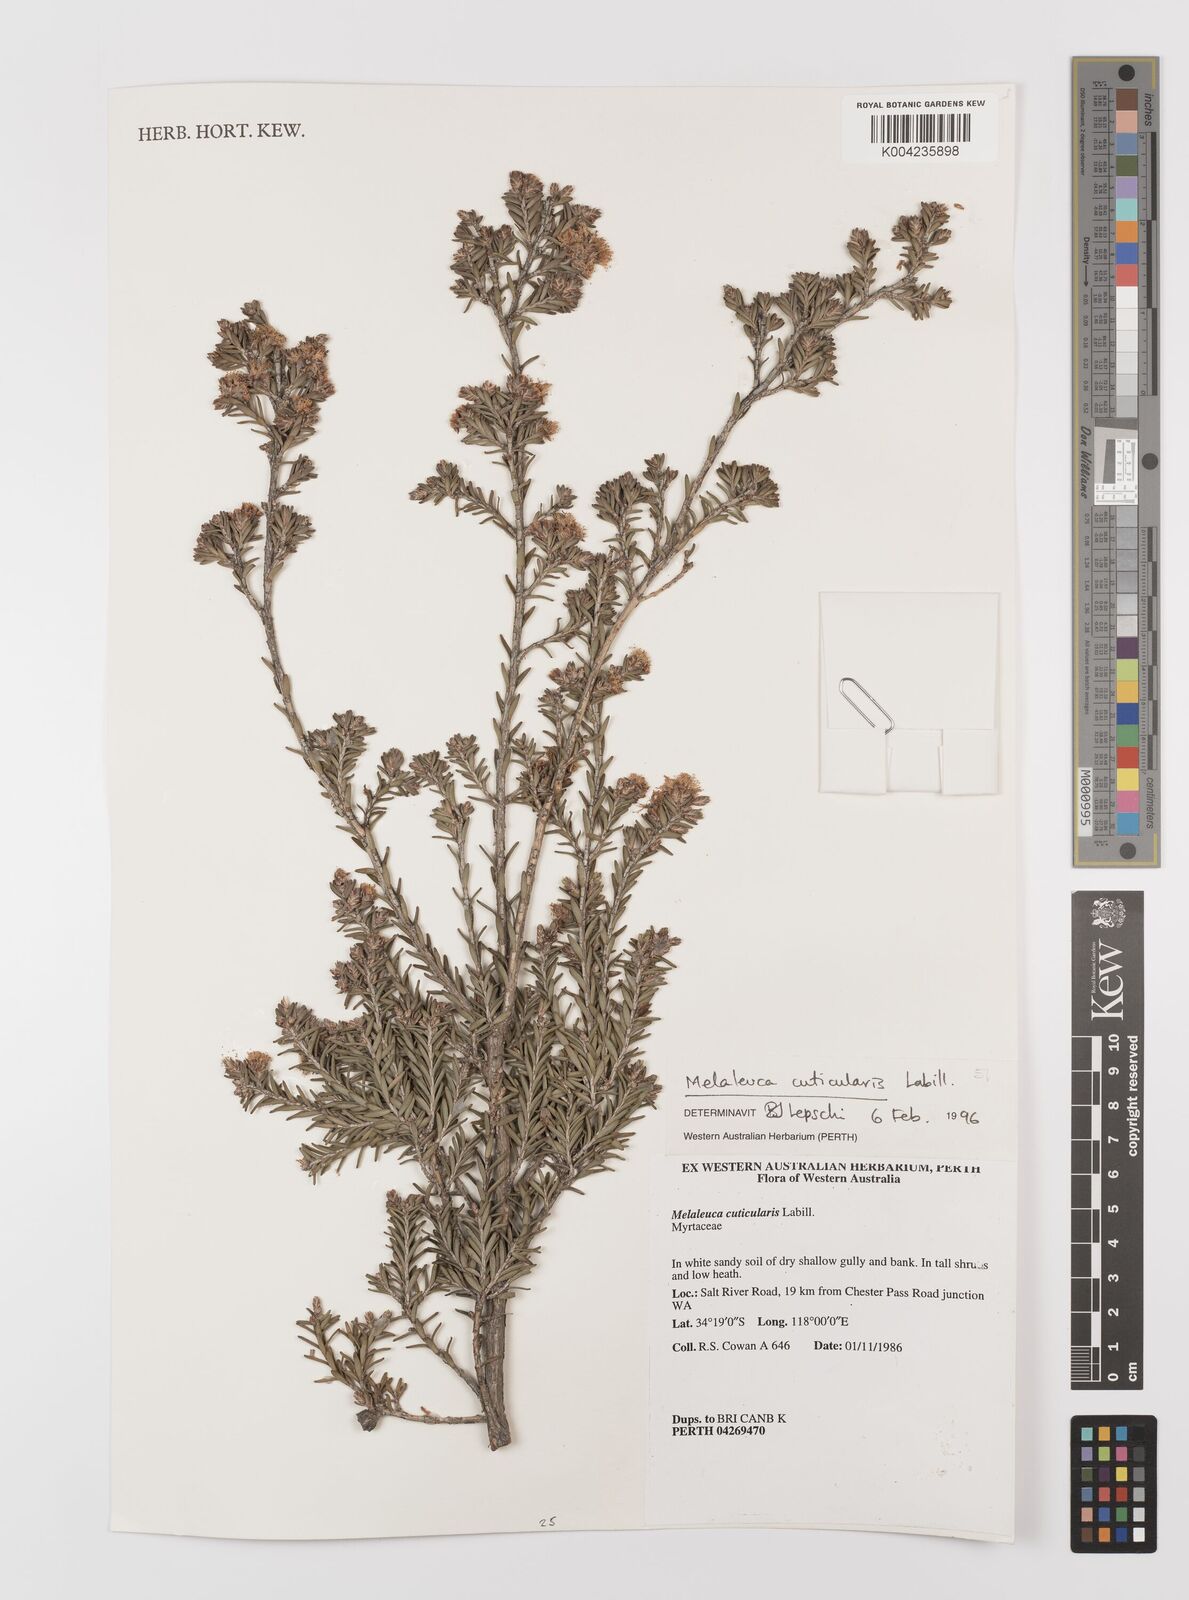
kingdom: Plantae
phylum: Tracheophyta
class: Magnoliopsida
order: Myrtales
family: Myrtaceae
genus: Melaleuca
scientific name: Melaleuca cuticularis
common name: Saltwater paperbark
